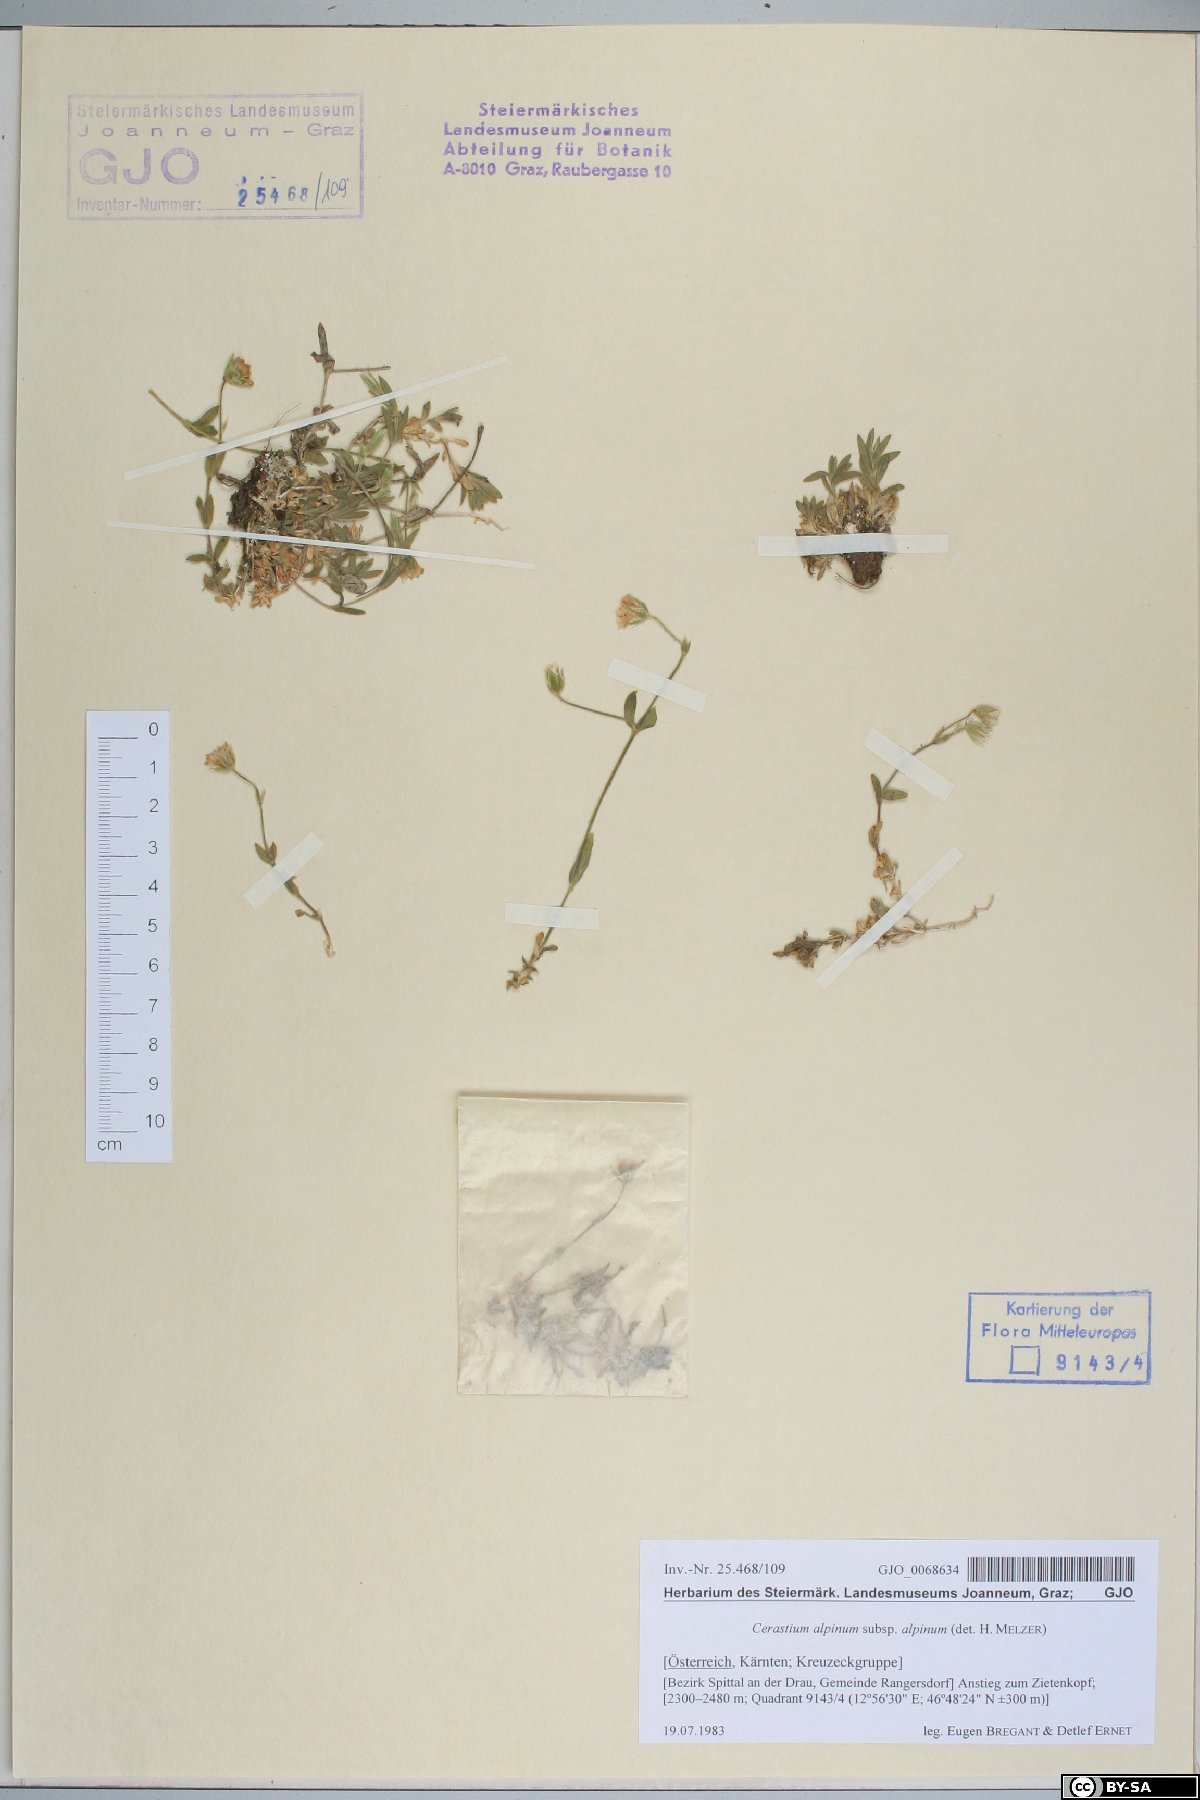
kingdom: Plantae
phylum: Tracheophyta
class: Magnoliopsida
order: Caryophyllales
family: Caryophyllaceae
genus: Cerastium
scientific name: Cerastium alpinum
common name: Alpine mouse-ear
